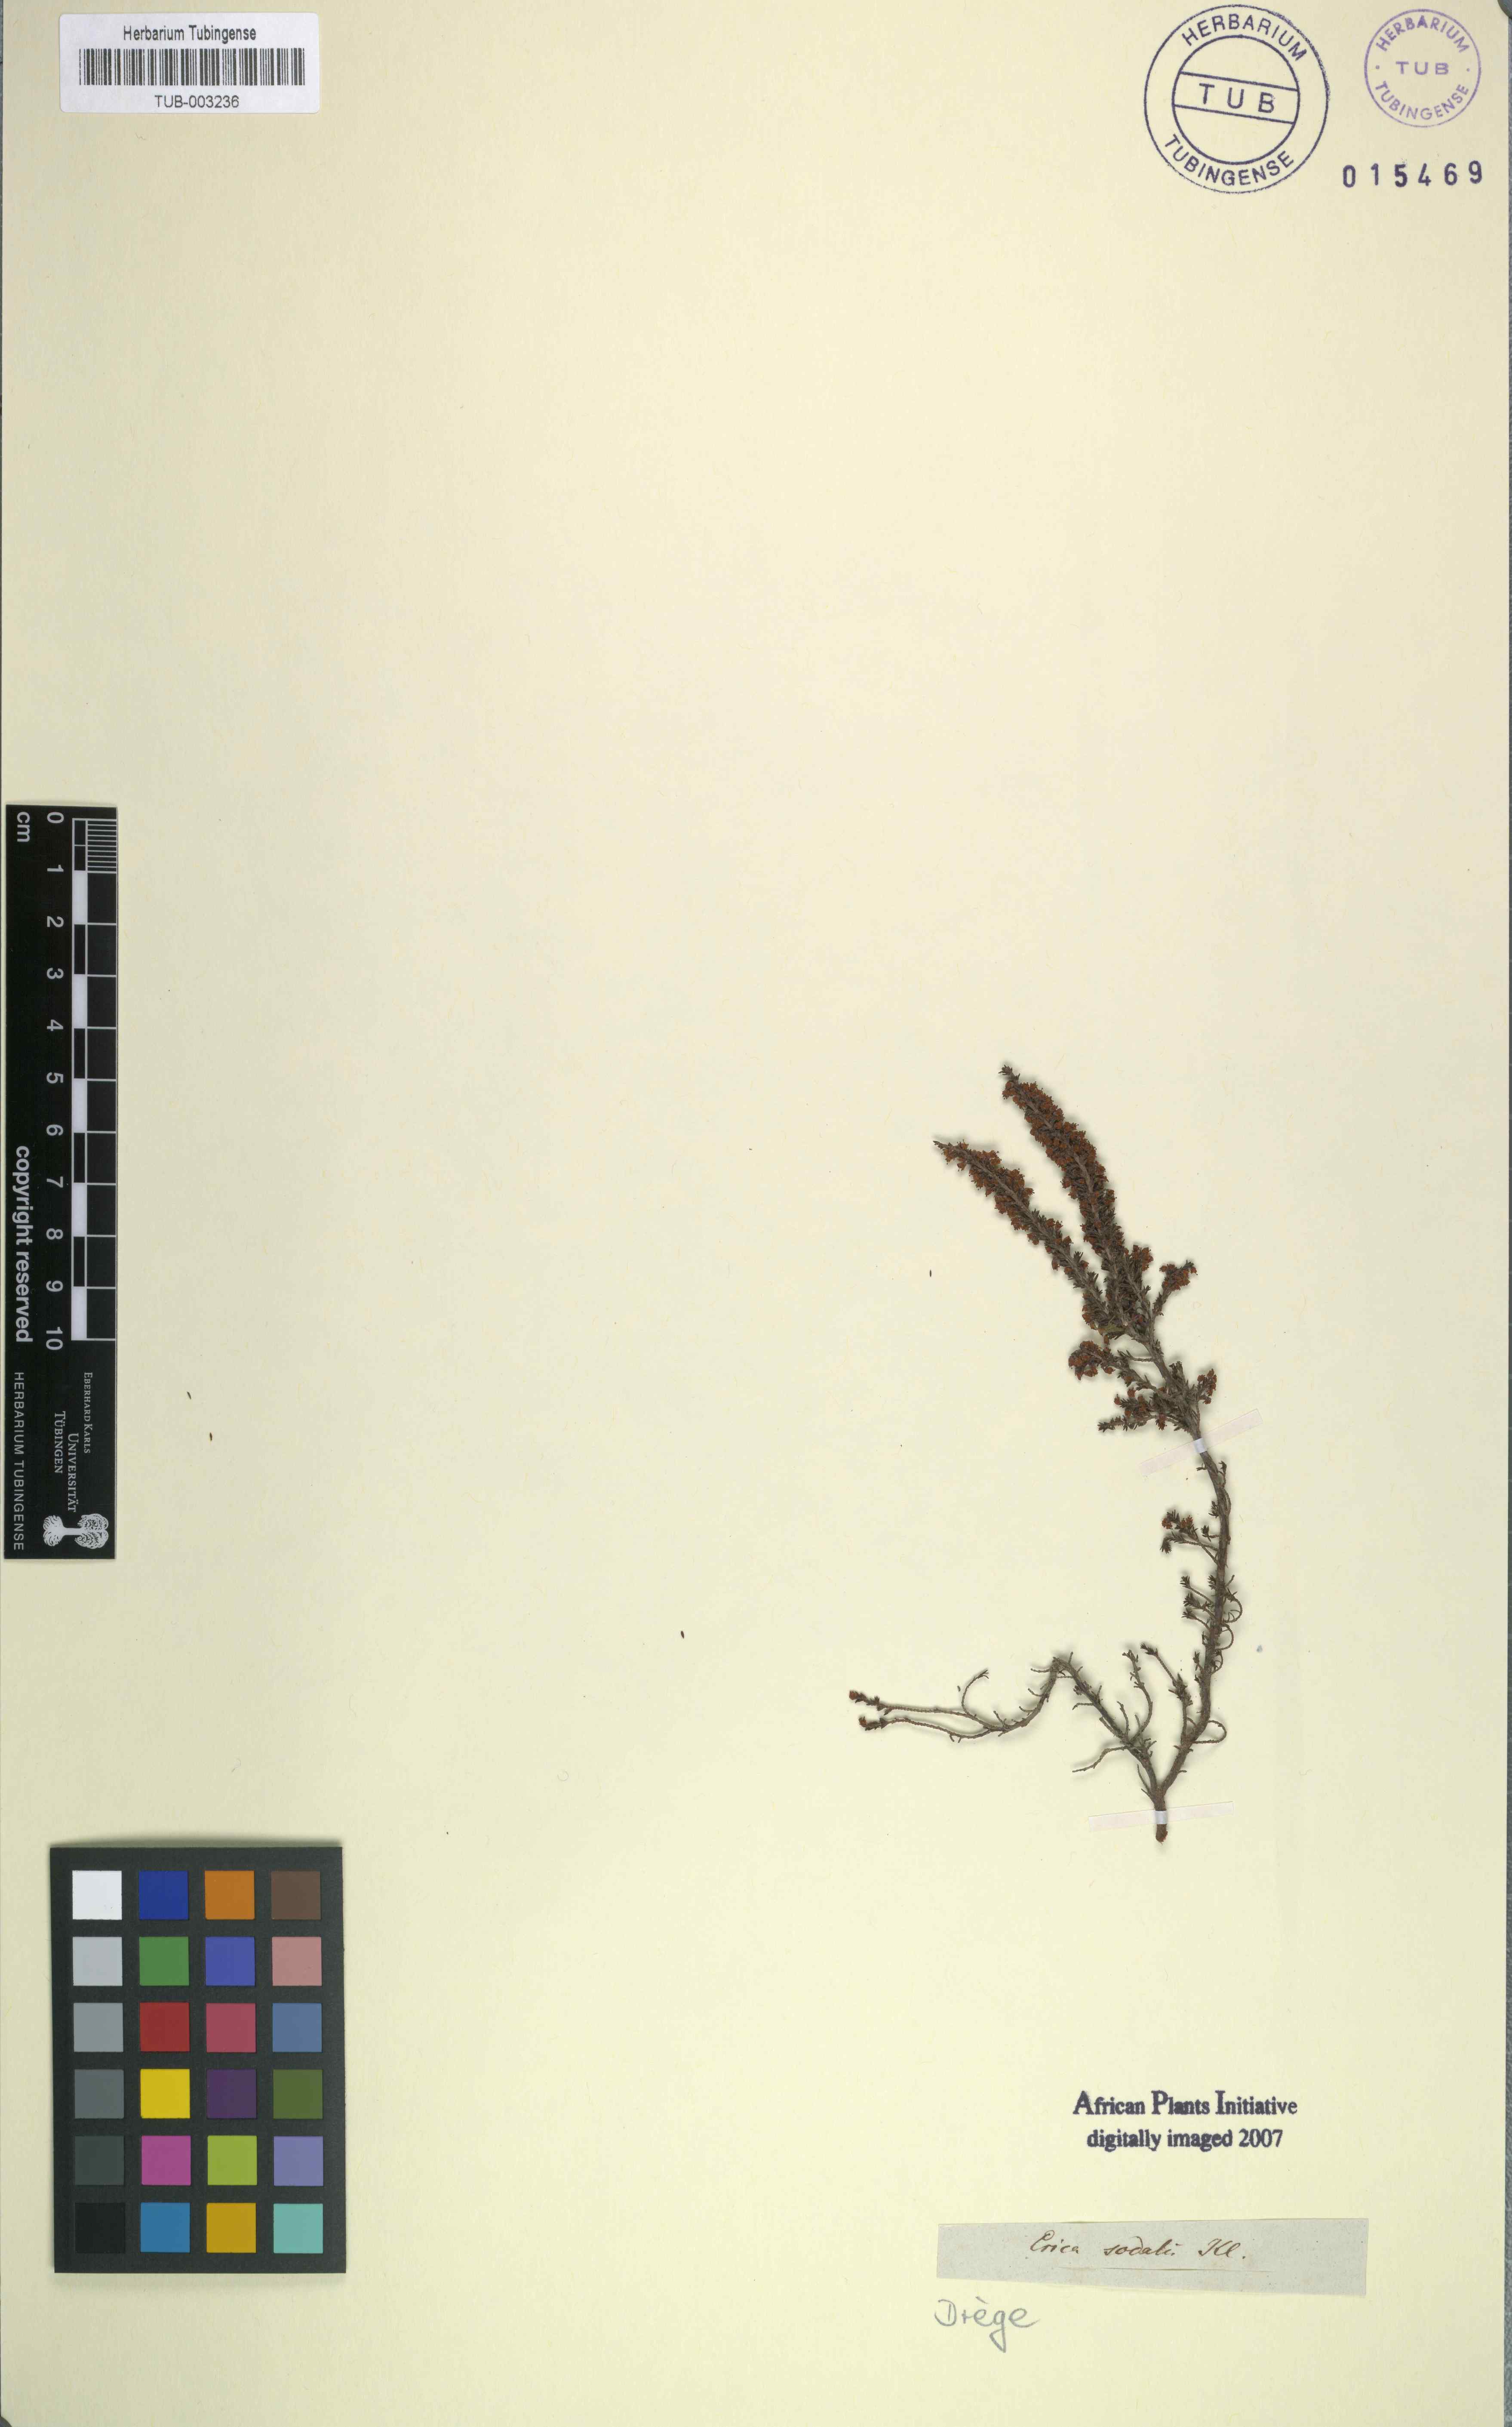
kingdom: Plantae
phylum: Tracheophyta
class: Magnoliopsida
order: Ericales
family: Ericaceae
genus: Erica
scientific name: Erica paniculata
